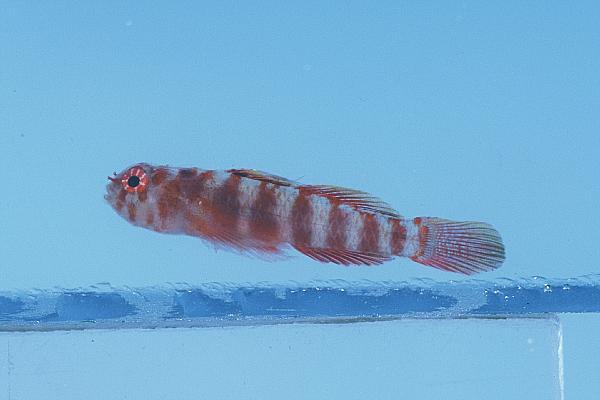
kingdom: Animalia
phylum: Chordata
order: Perciformes
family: Gobiidae
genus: Eviota
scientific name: Eviota guttata
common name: Green pygmy-goby
